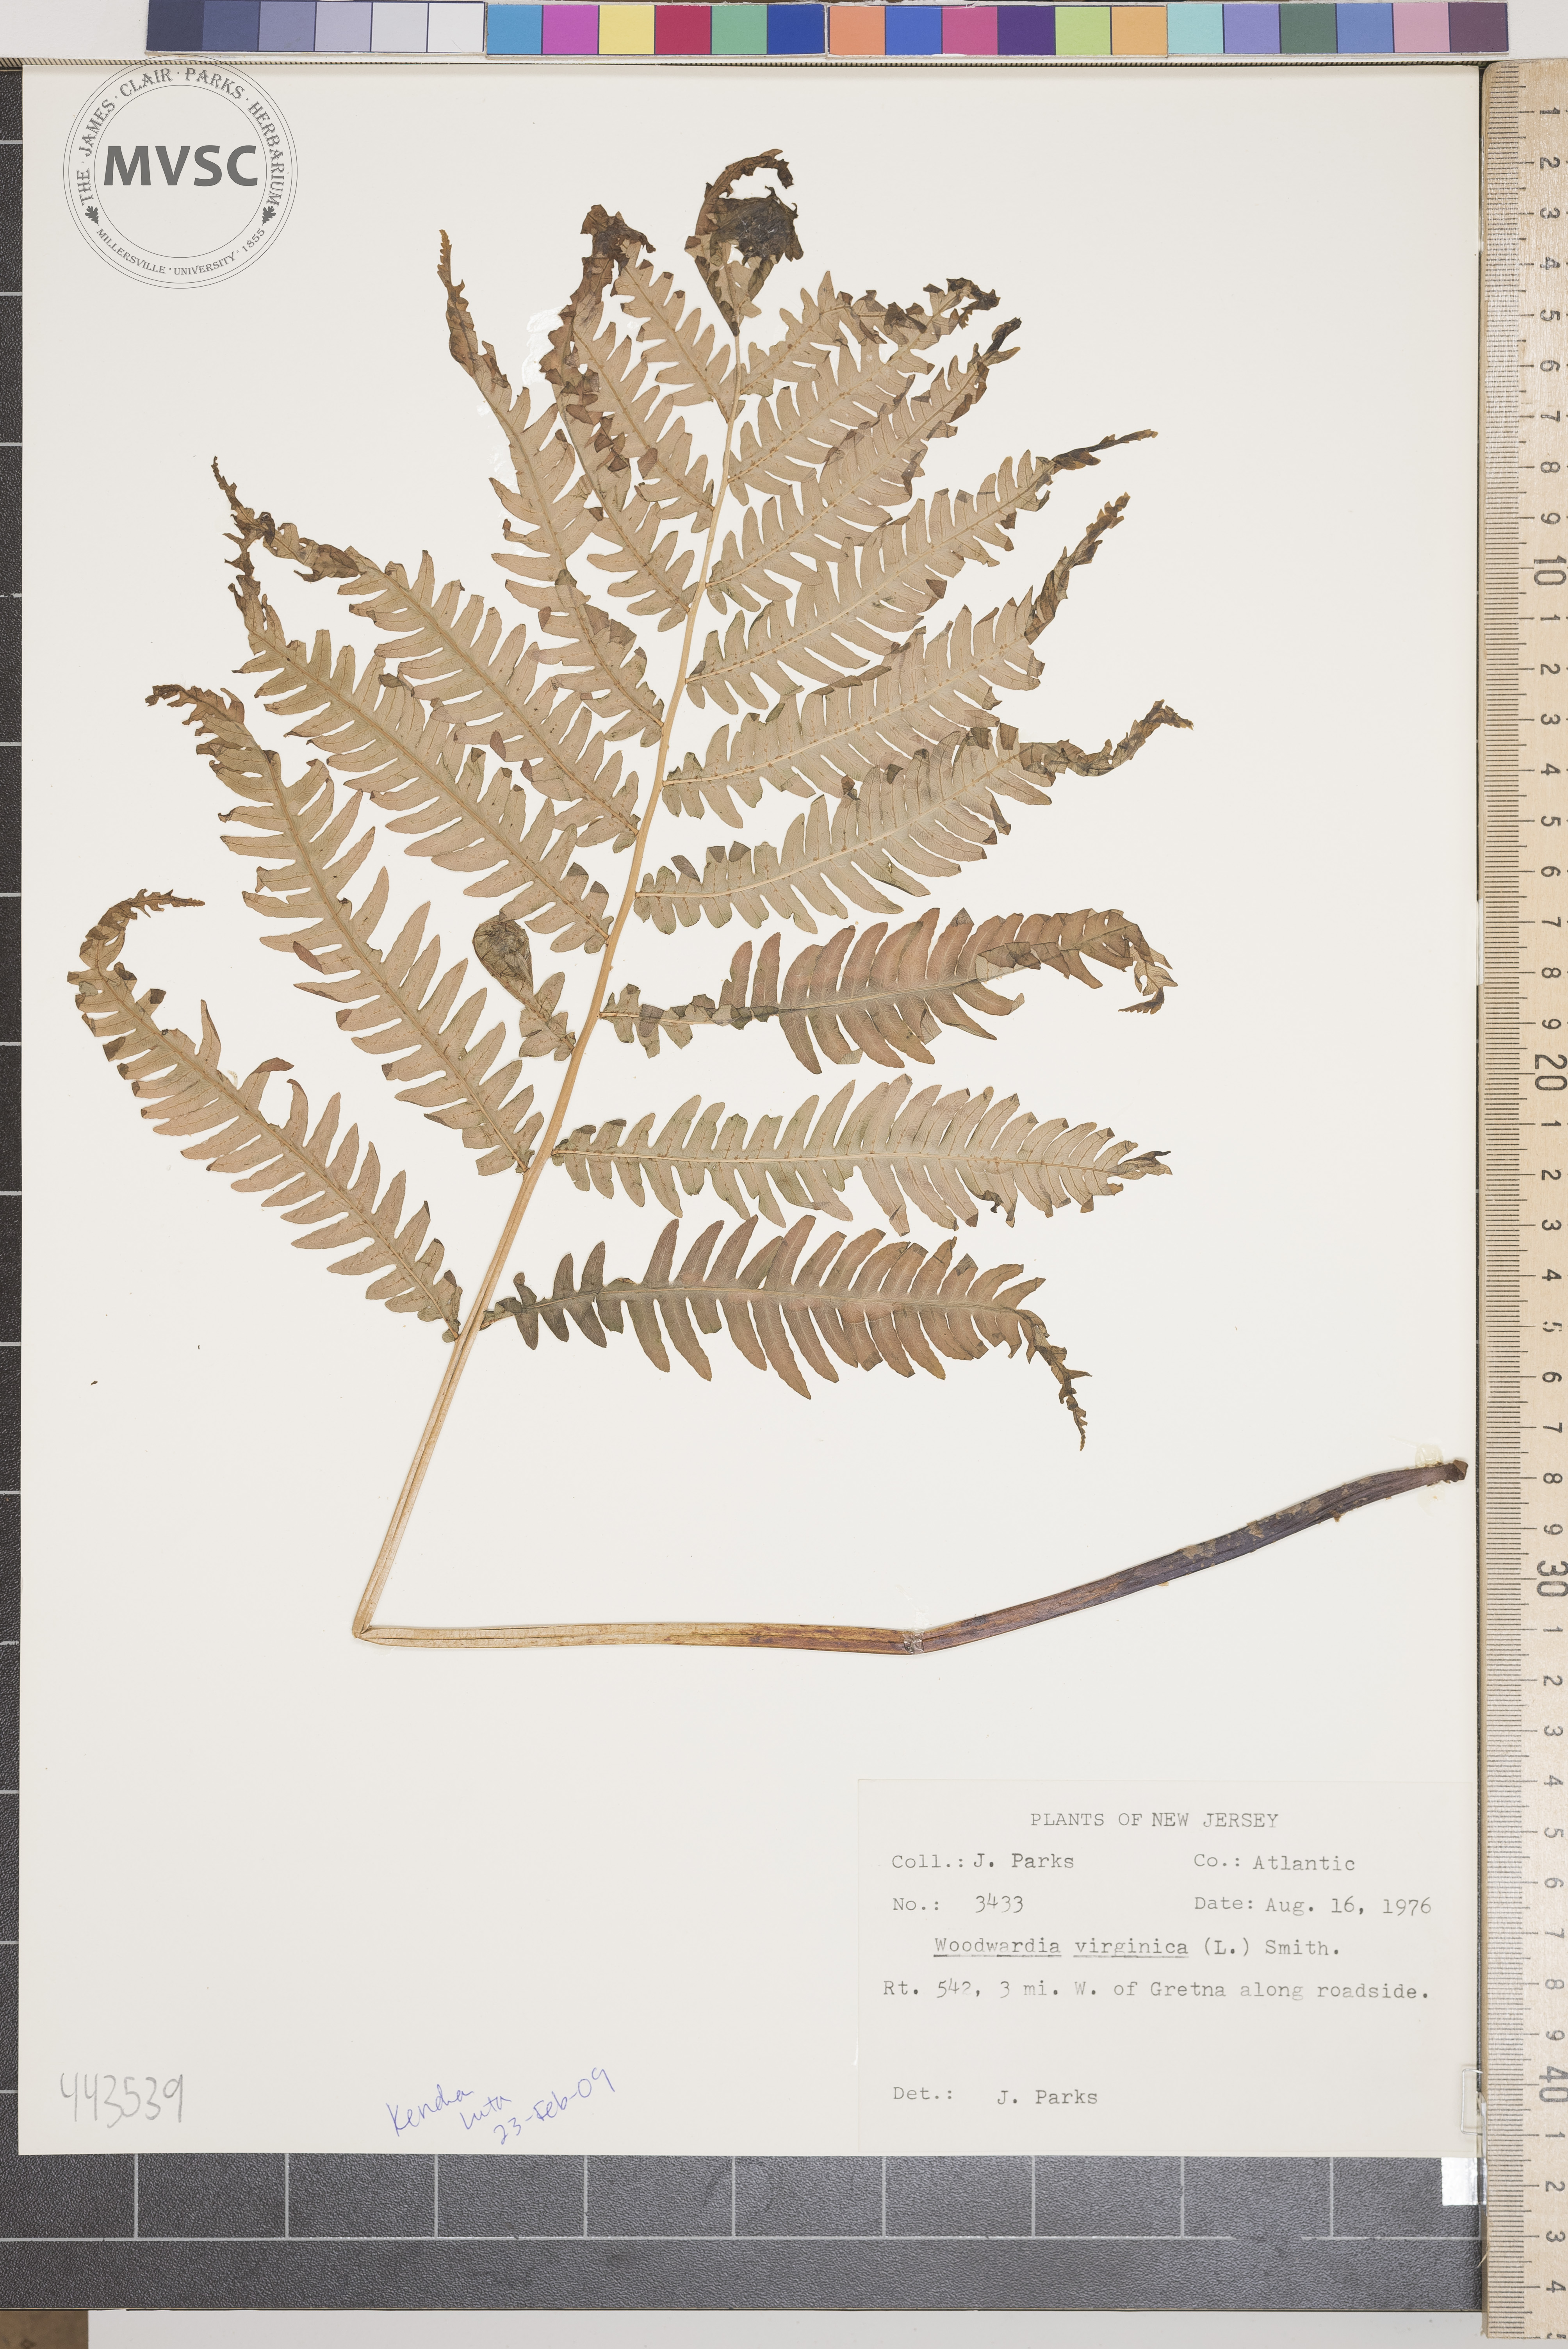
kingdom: Plantae
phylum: Tracheophyta
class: Polypodiopsida
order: Polypodiales
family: Blechnaceae
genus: Lorinseria
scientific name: Lorinseria areolata
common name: Dwarf chain fern
